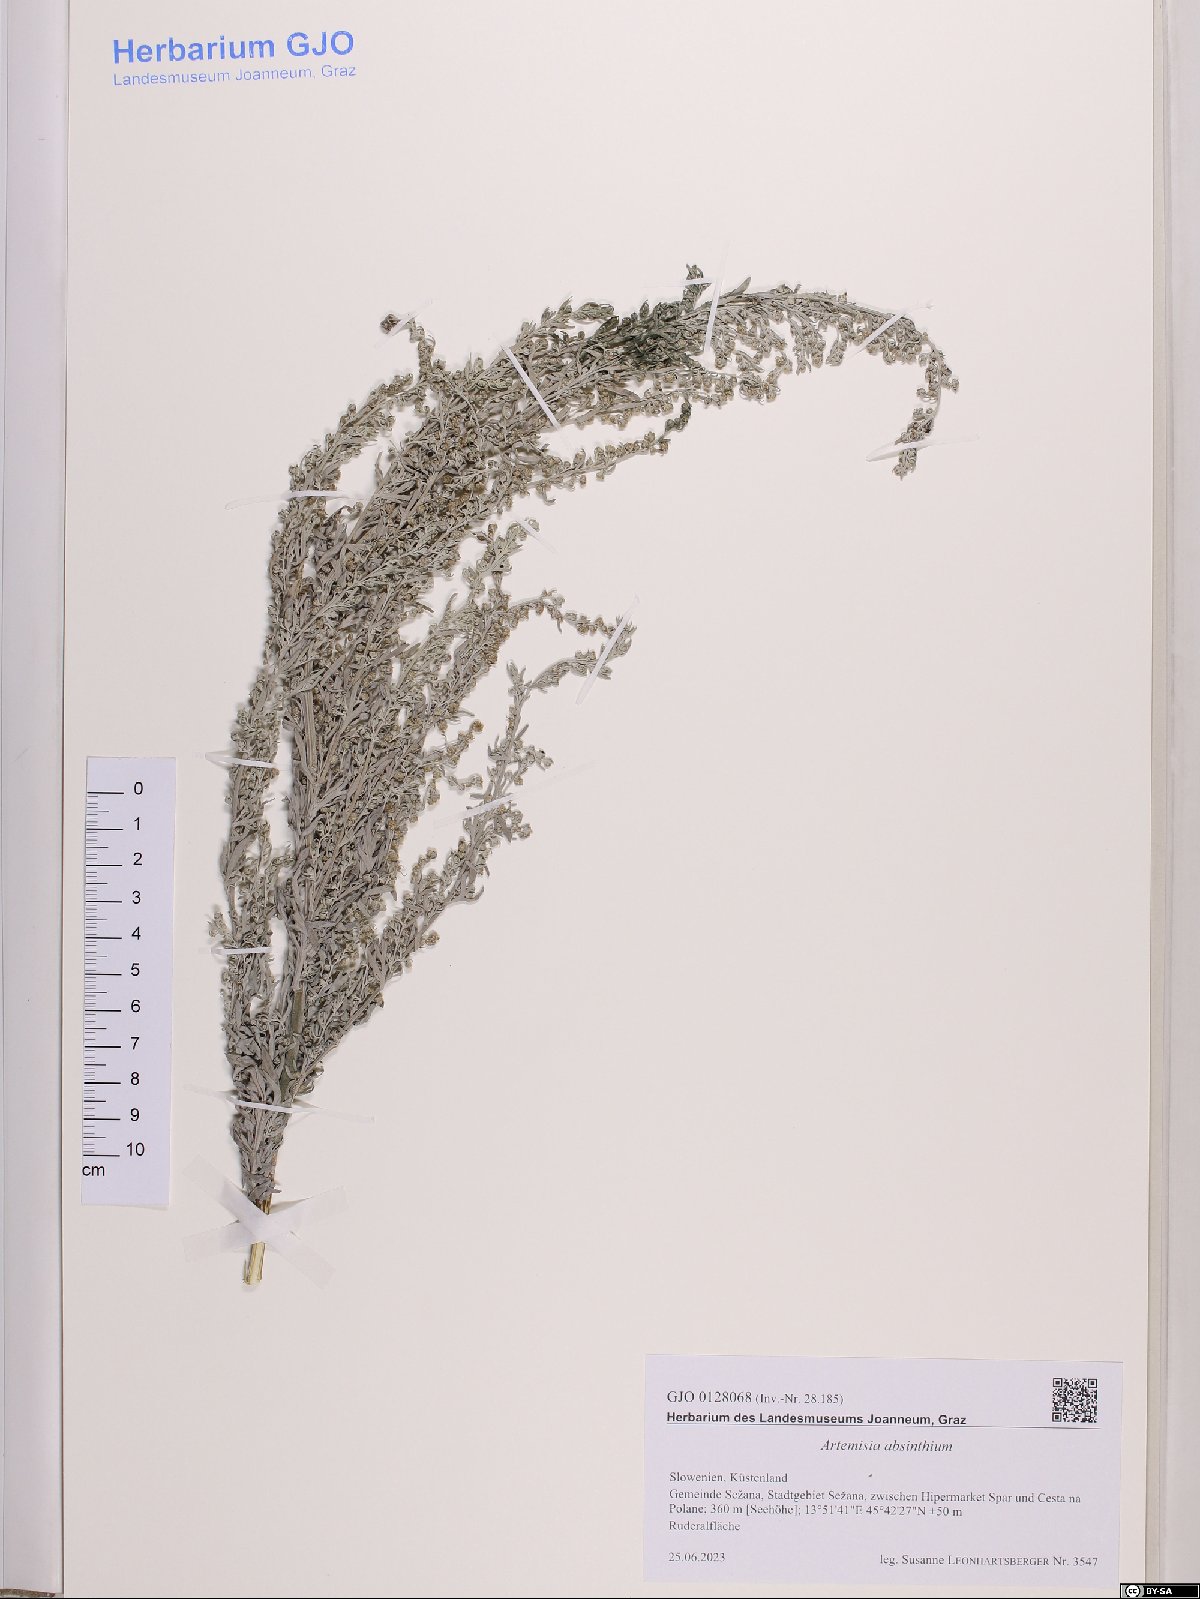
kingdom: Plantae
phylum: Tracheophyta
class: Magnoliopsida
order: Asterales
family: Asteraceae
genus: Artemisia
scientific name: Artemisia absinthium
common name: Wormwood
